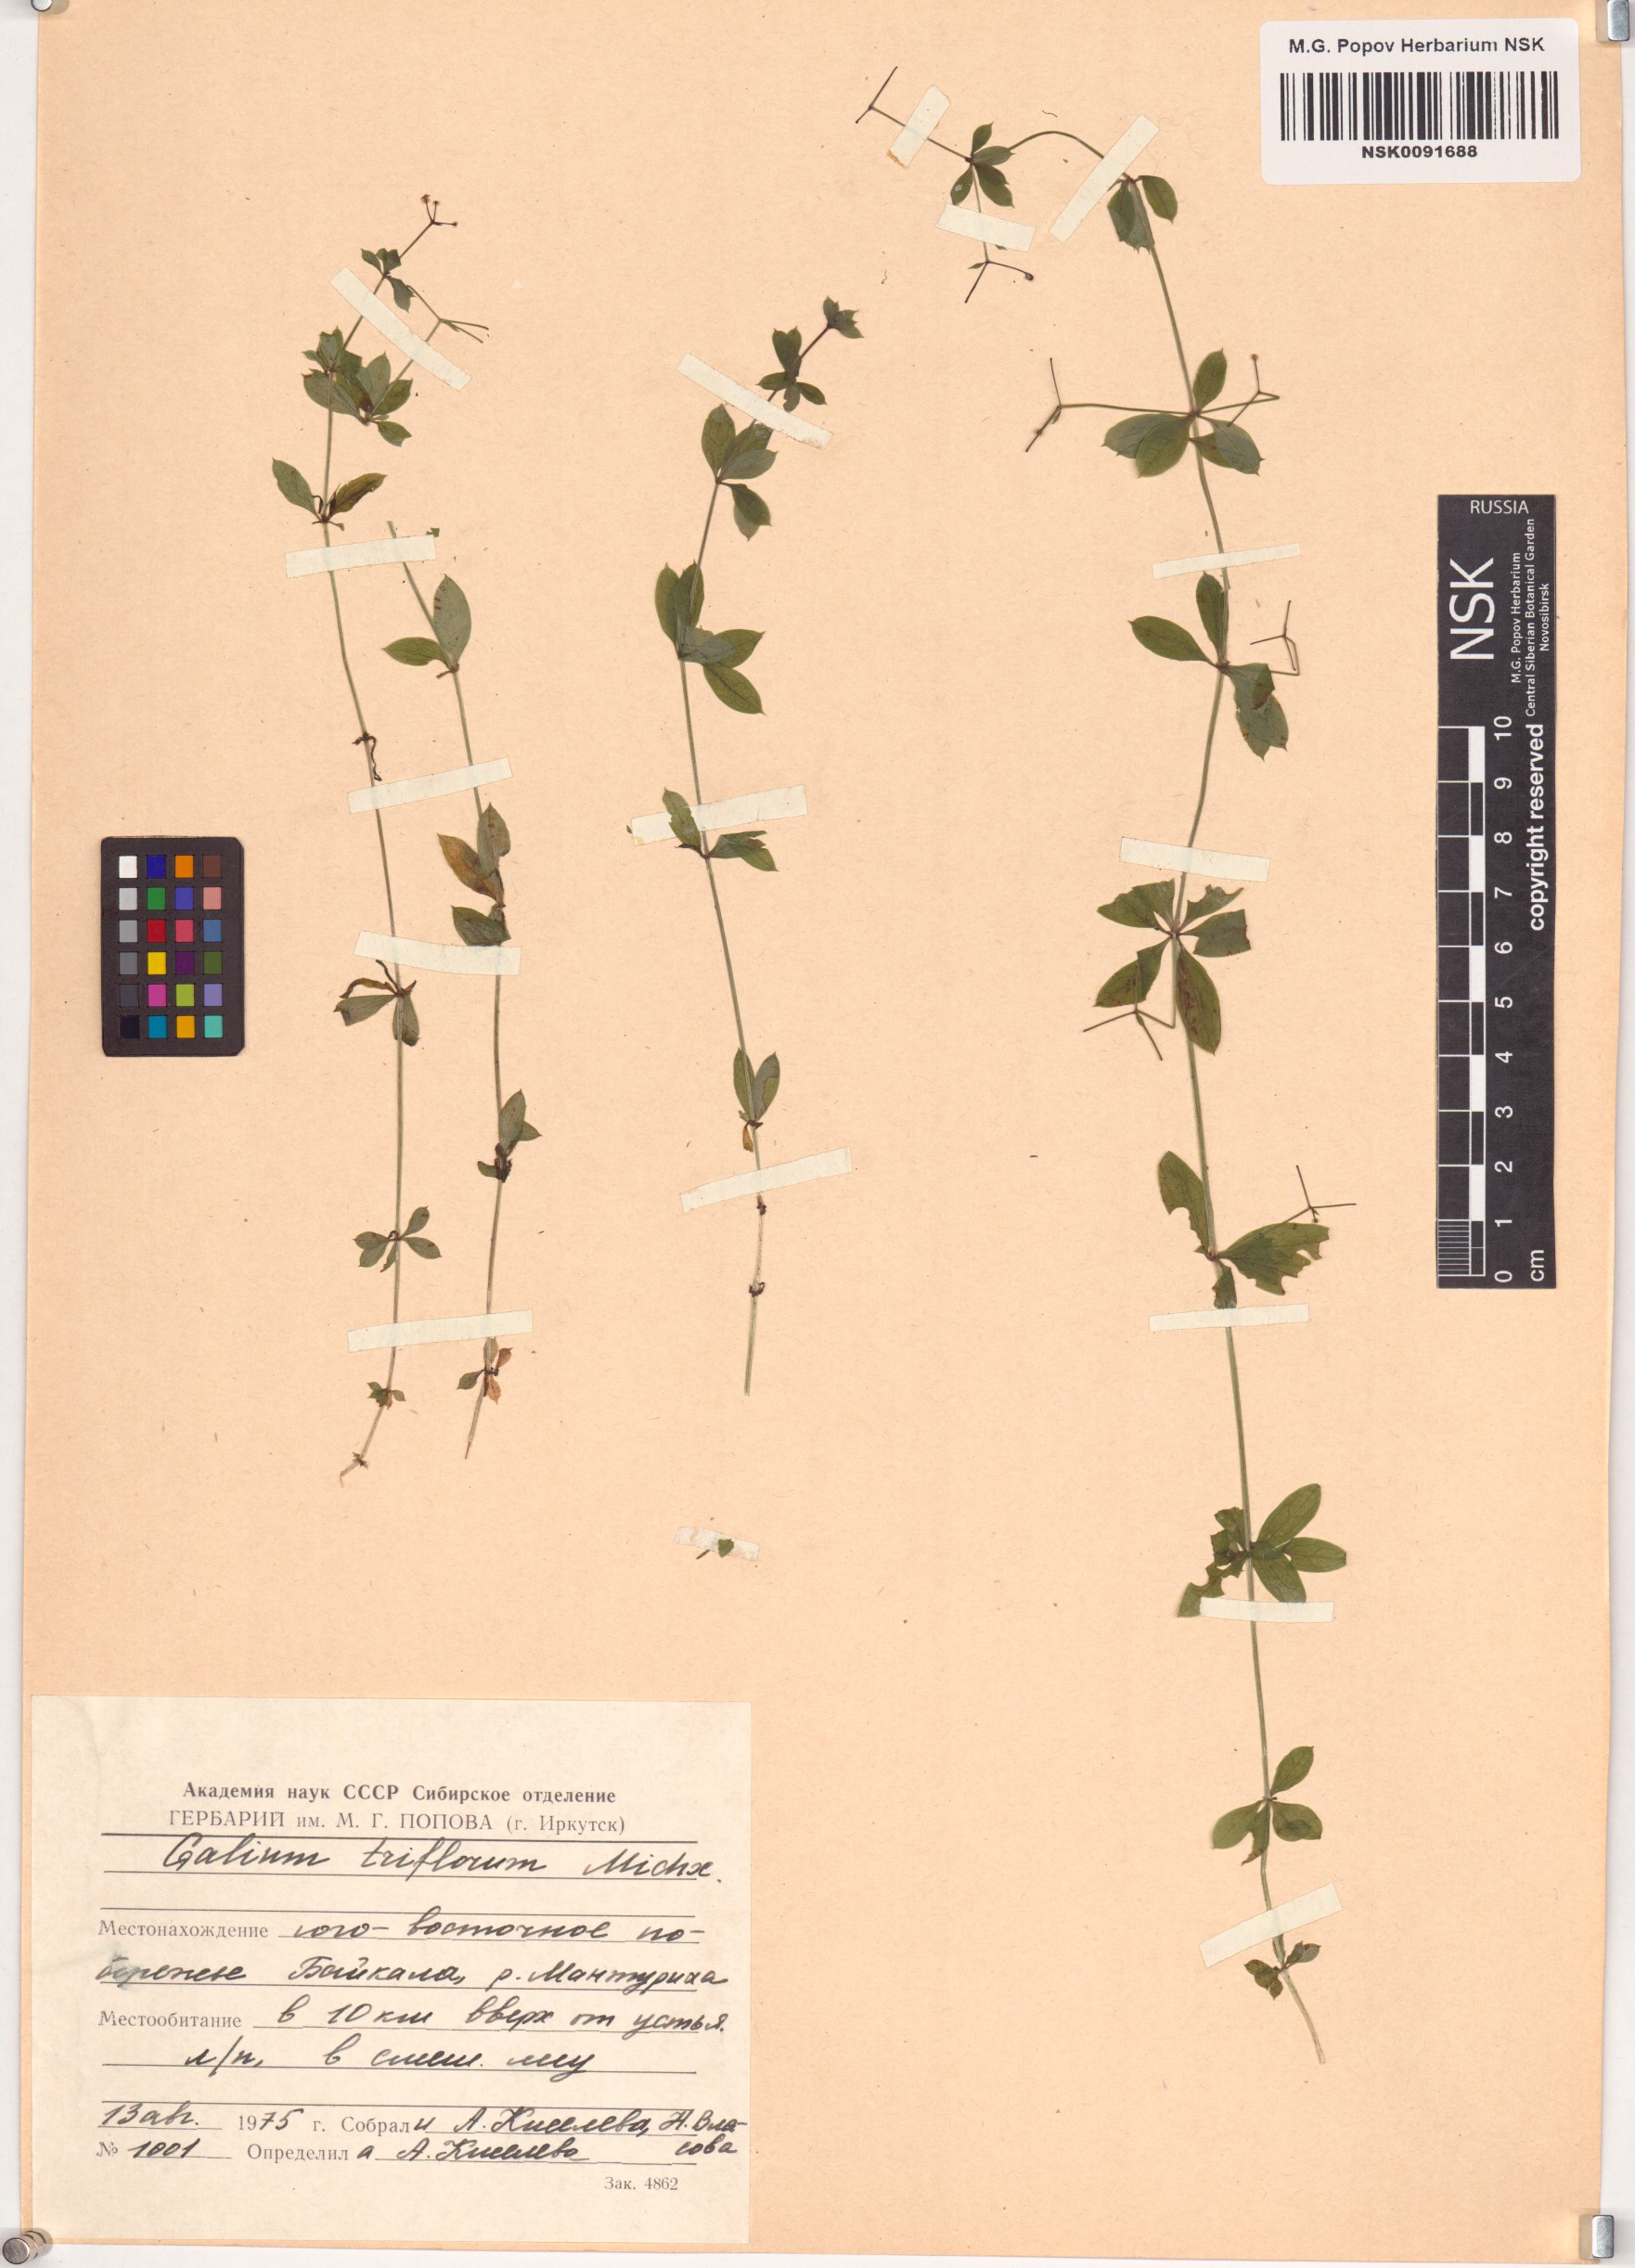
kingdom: Plantae
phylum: Tracheophyta
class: Magnoliopsida
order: Gentianales
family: Rubiaceae
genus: Galium
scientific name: Galium triflorum
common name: Fragrant bedstraw
